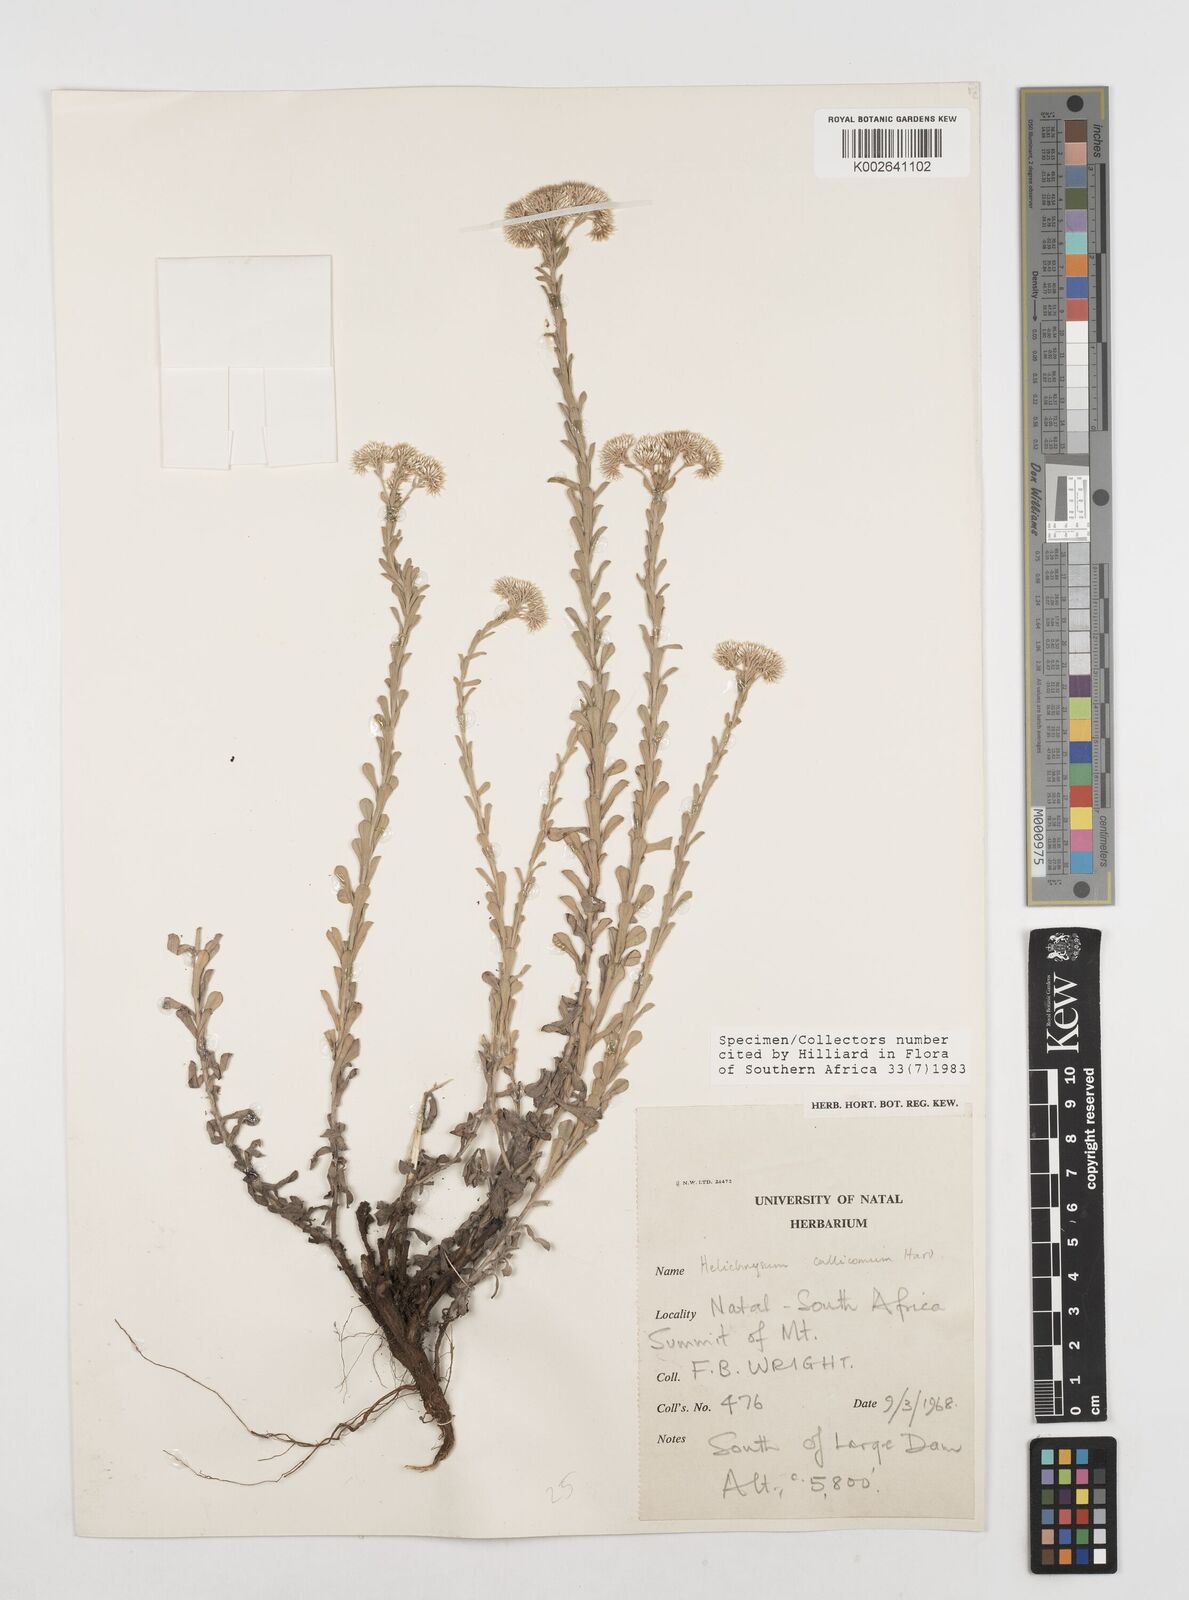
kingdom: Plantae
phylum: Tracheophyta
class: Magnoliopsida
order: Asterales
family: Asteraceae
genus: Helichrysum
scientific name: Helichrysum callicomum
